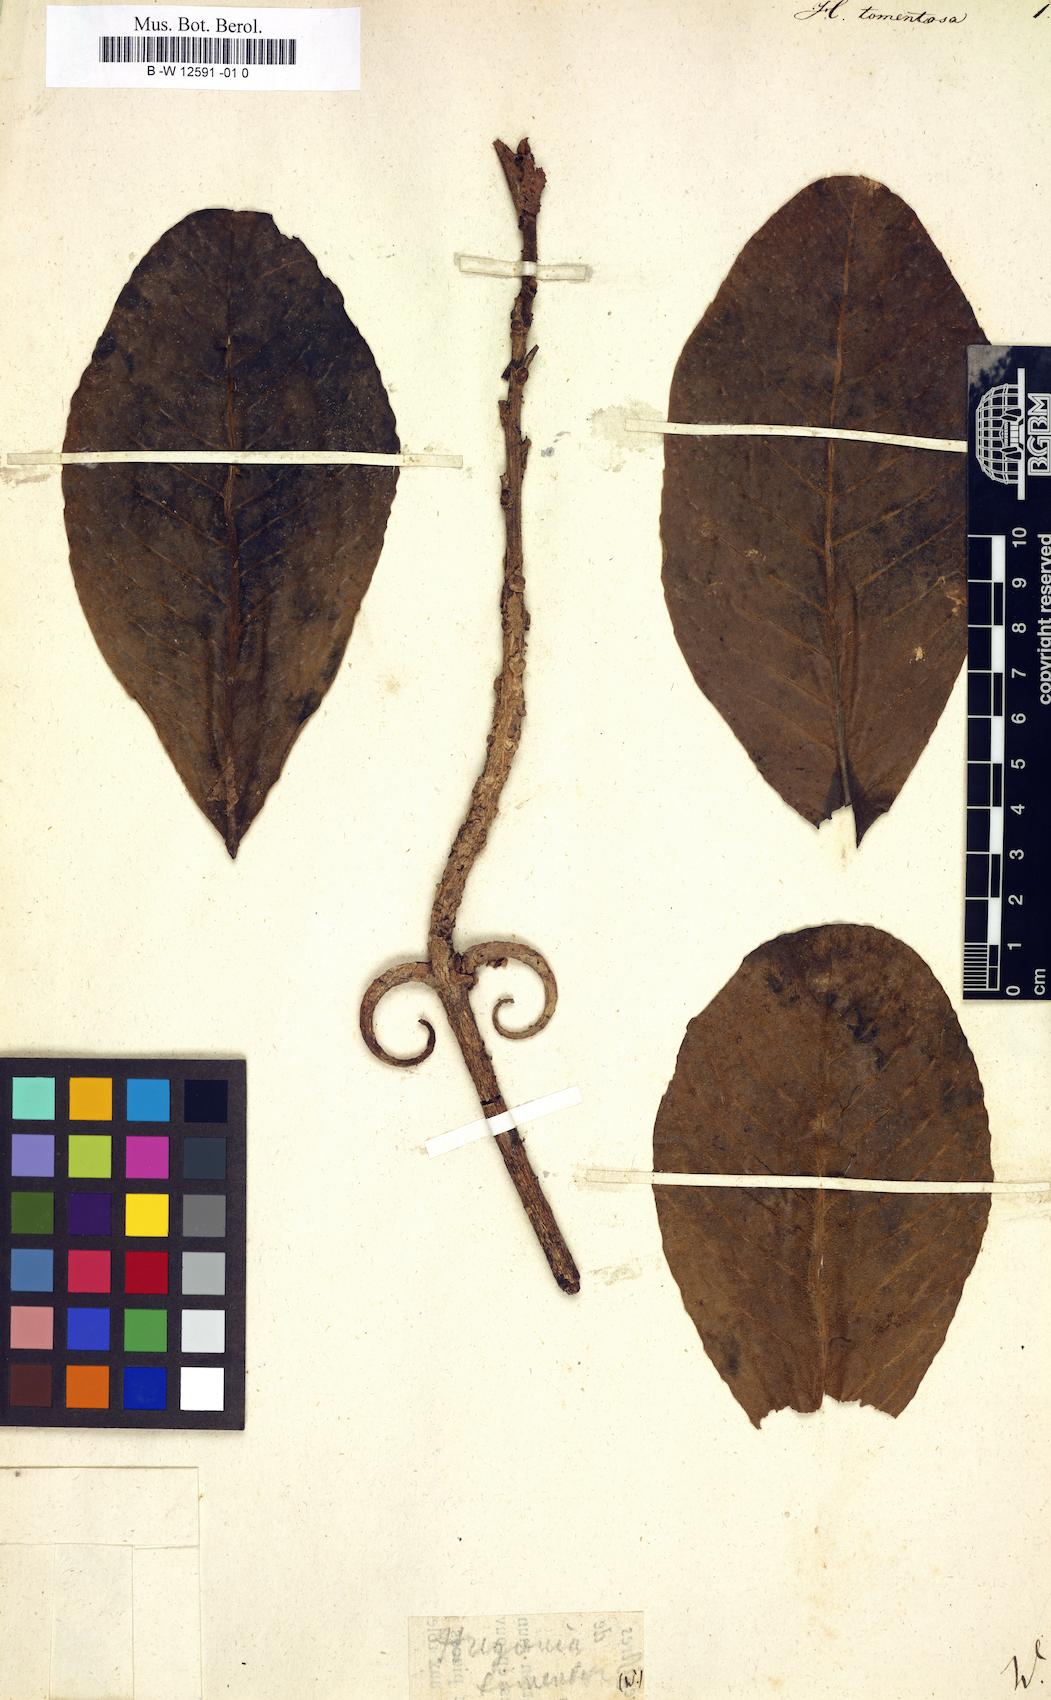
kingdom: Plantae
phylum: Tracheophyta
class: Magnoliopsida
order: Malpighiales
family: Linaceae
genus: Hugonia
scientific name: Hugonia tomentosa
